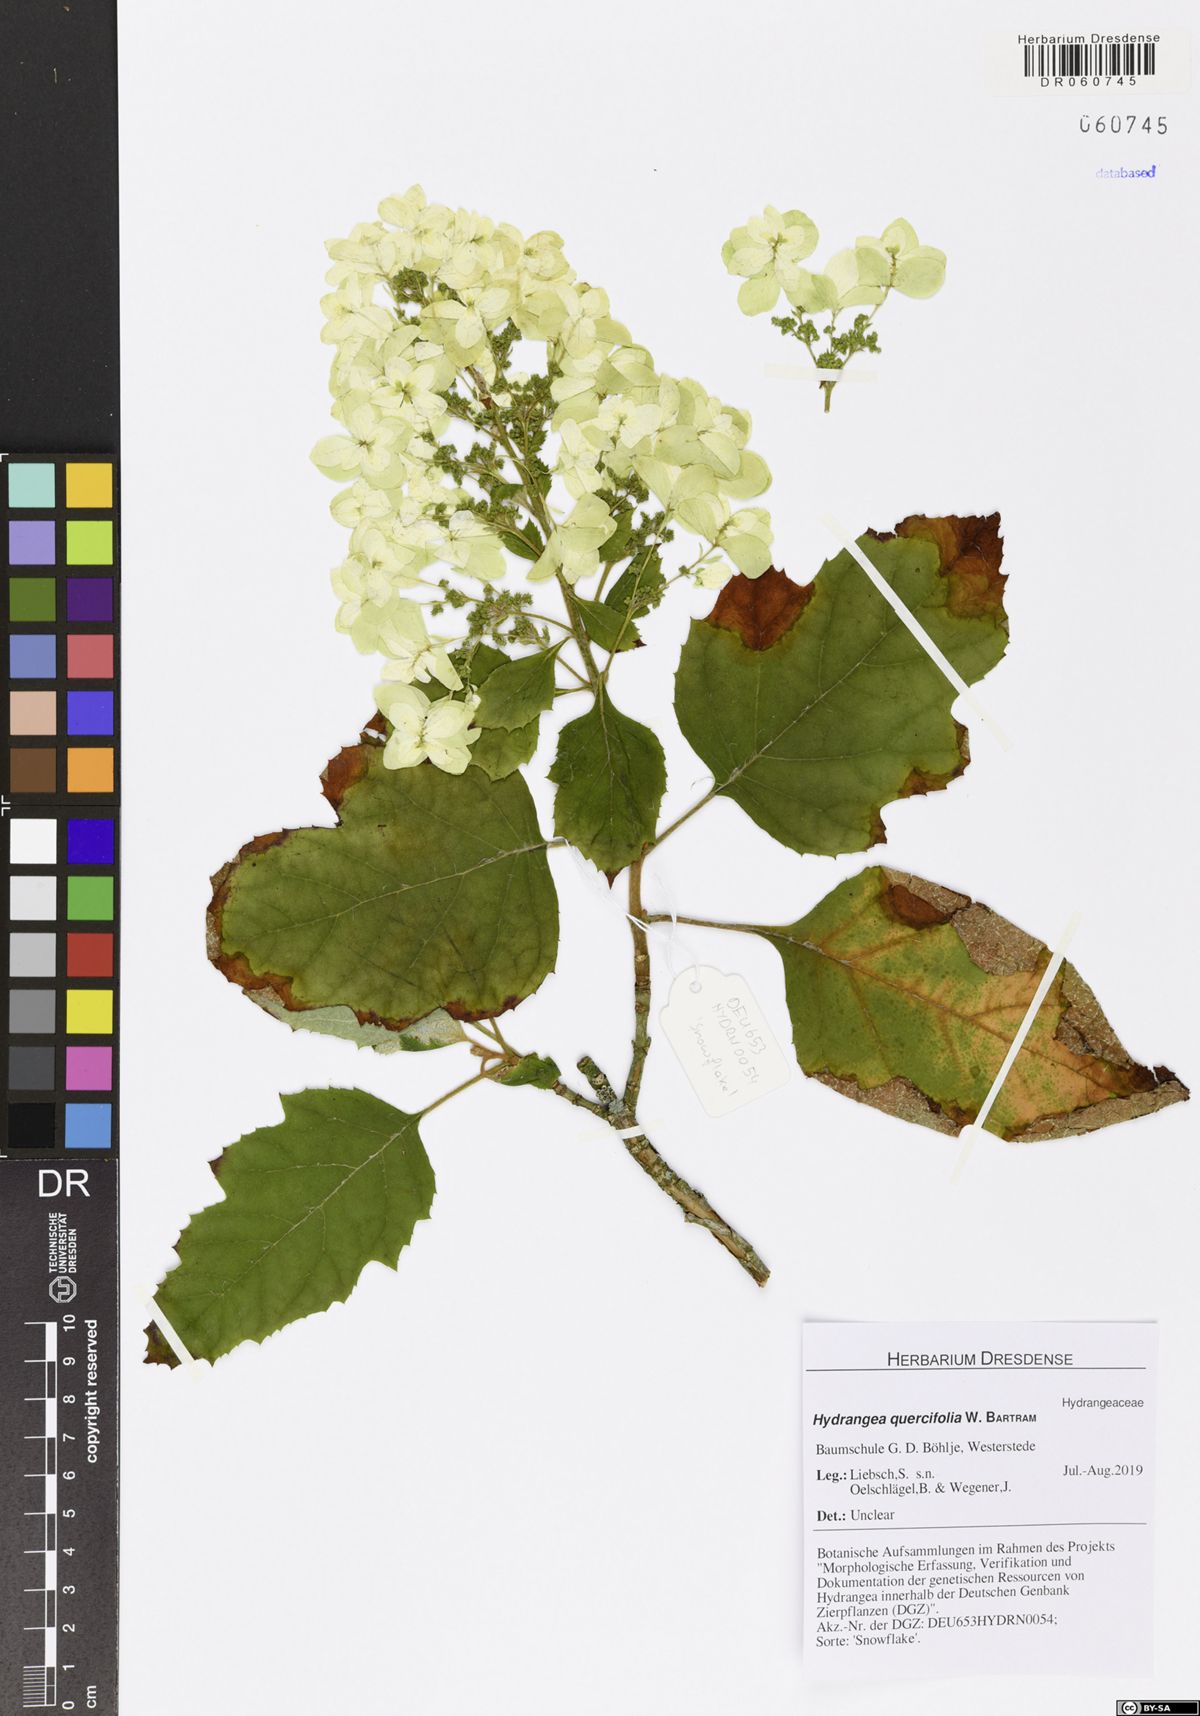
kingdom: Plantae
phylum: Tracheophyta
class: Magnoliopsida
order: Cornales
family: Hydrangeaceae
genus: Hydrangea
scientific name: Hydrangea quercifolia
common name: Oak-leaf hydrangea
